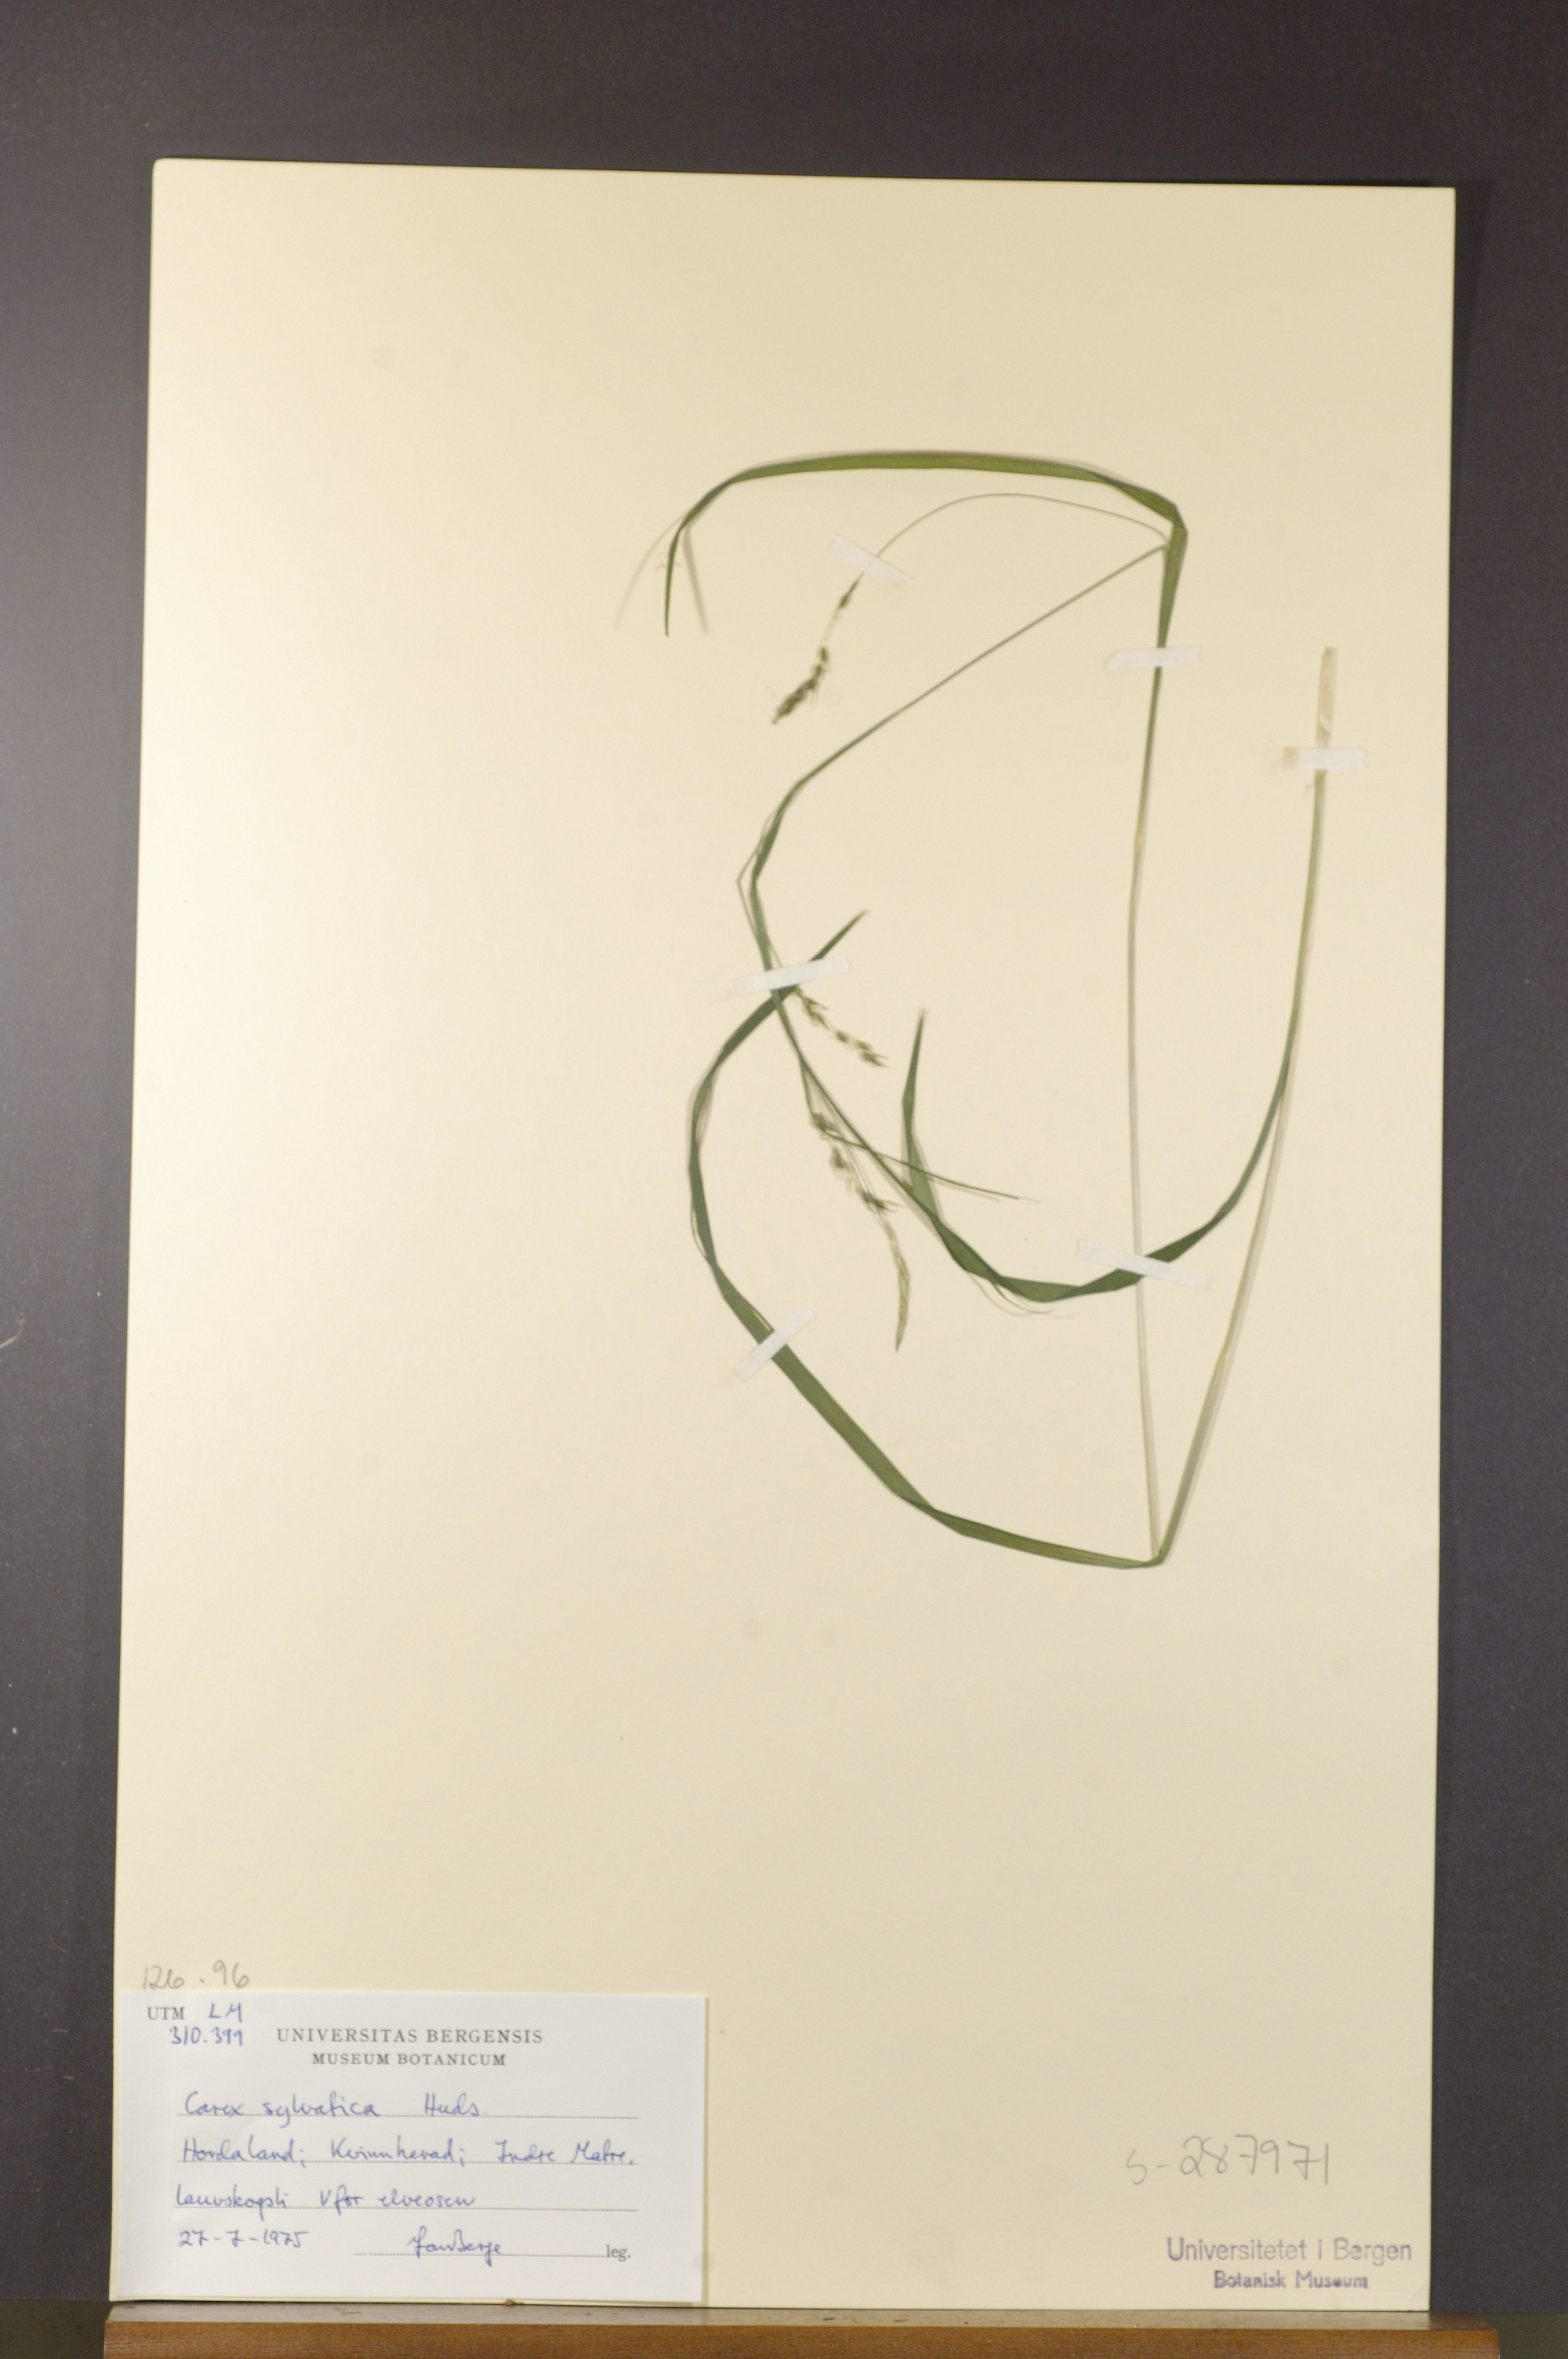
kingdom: Plantae
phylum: Tracheophyta
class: Liliopsida
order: Poales
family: Cyperaceae
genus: Carex
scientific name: Carex sylvatica
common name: Wood-sedge
